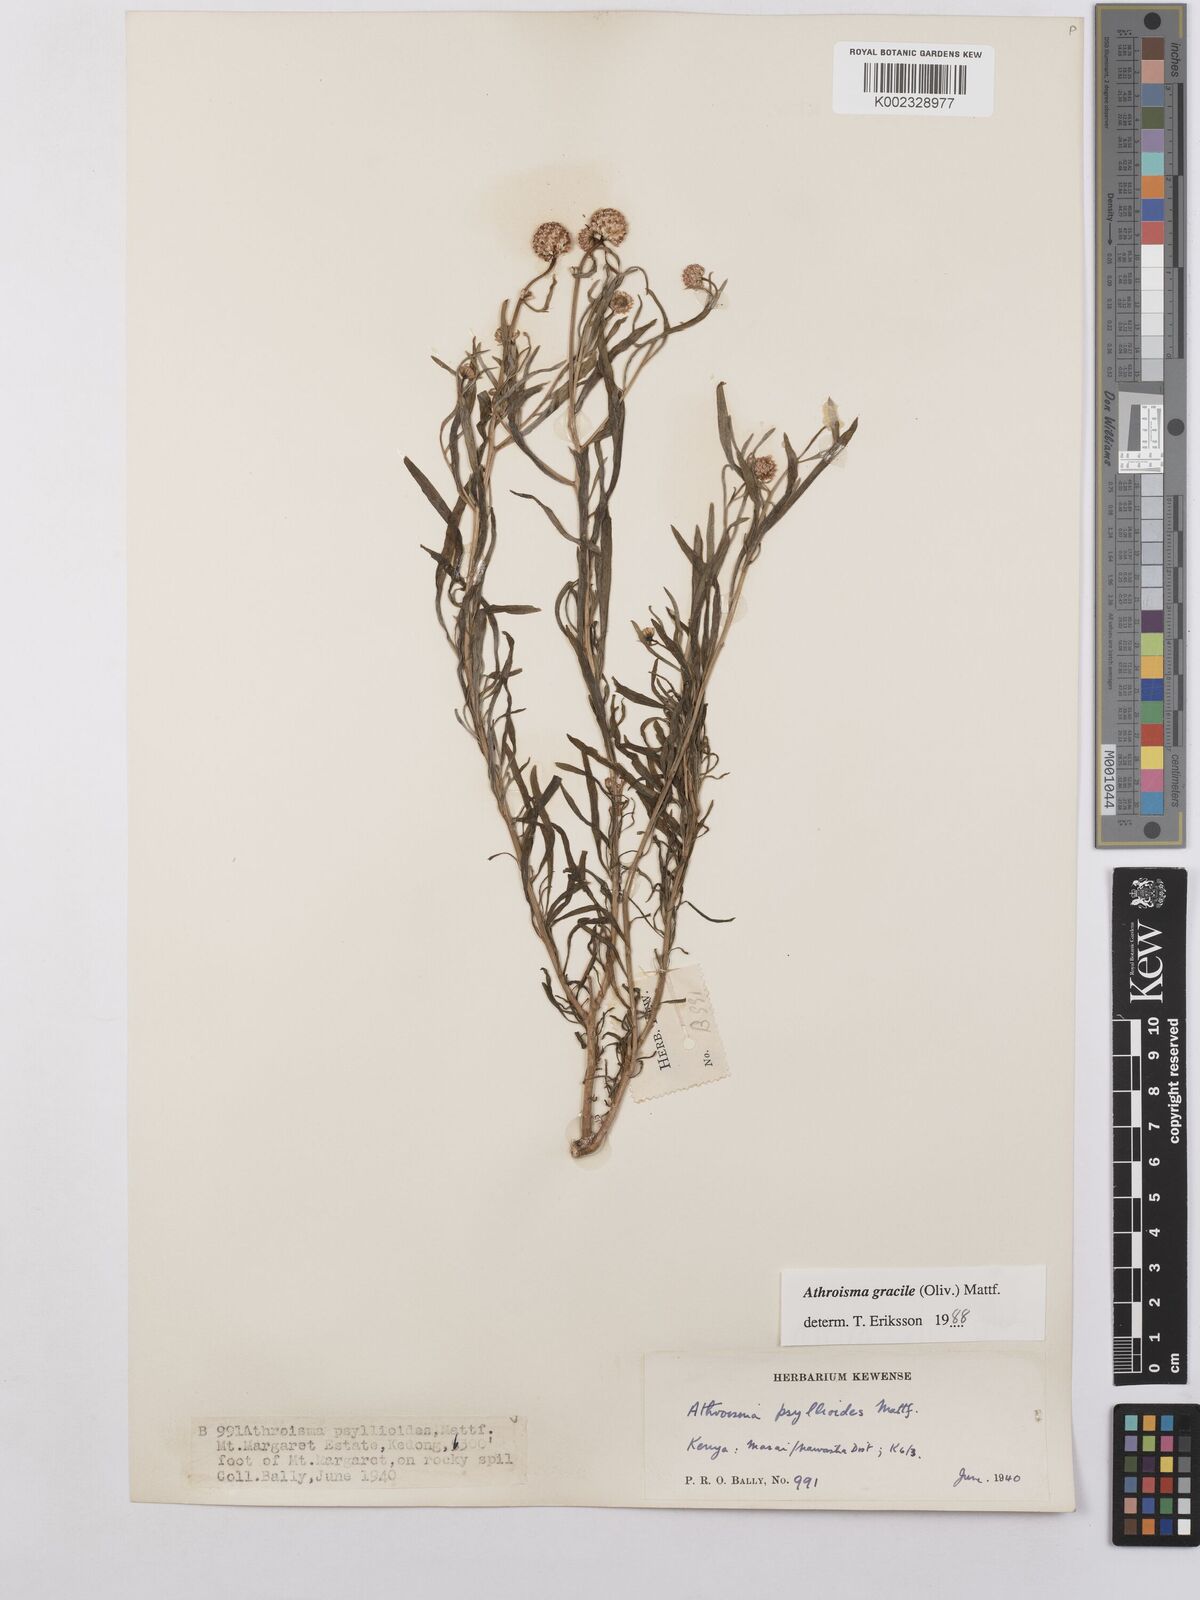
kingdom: Plantae
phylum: Tracheophyta
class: Magnoliopsida
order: Asterales
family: Asteraceae
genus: Athroisma
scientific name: Athroisma gracile
